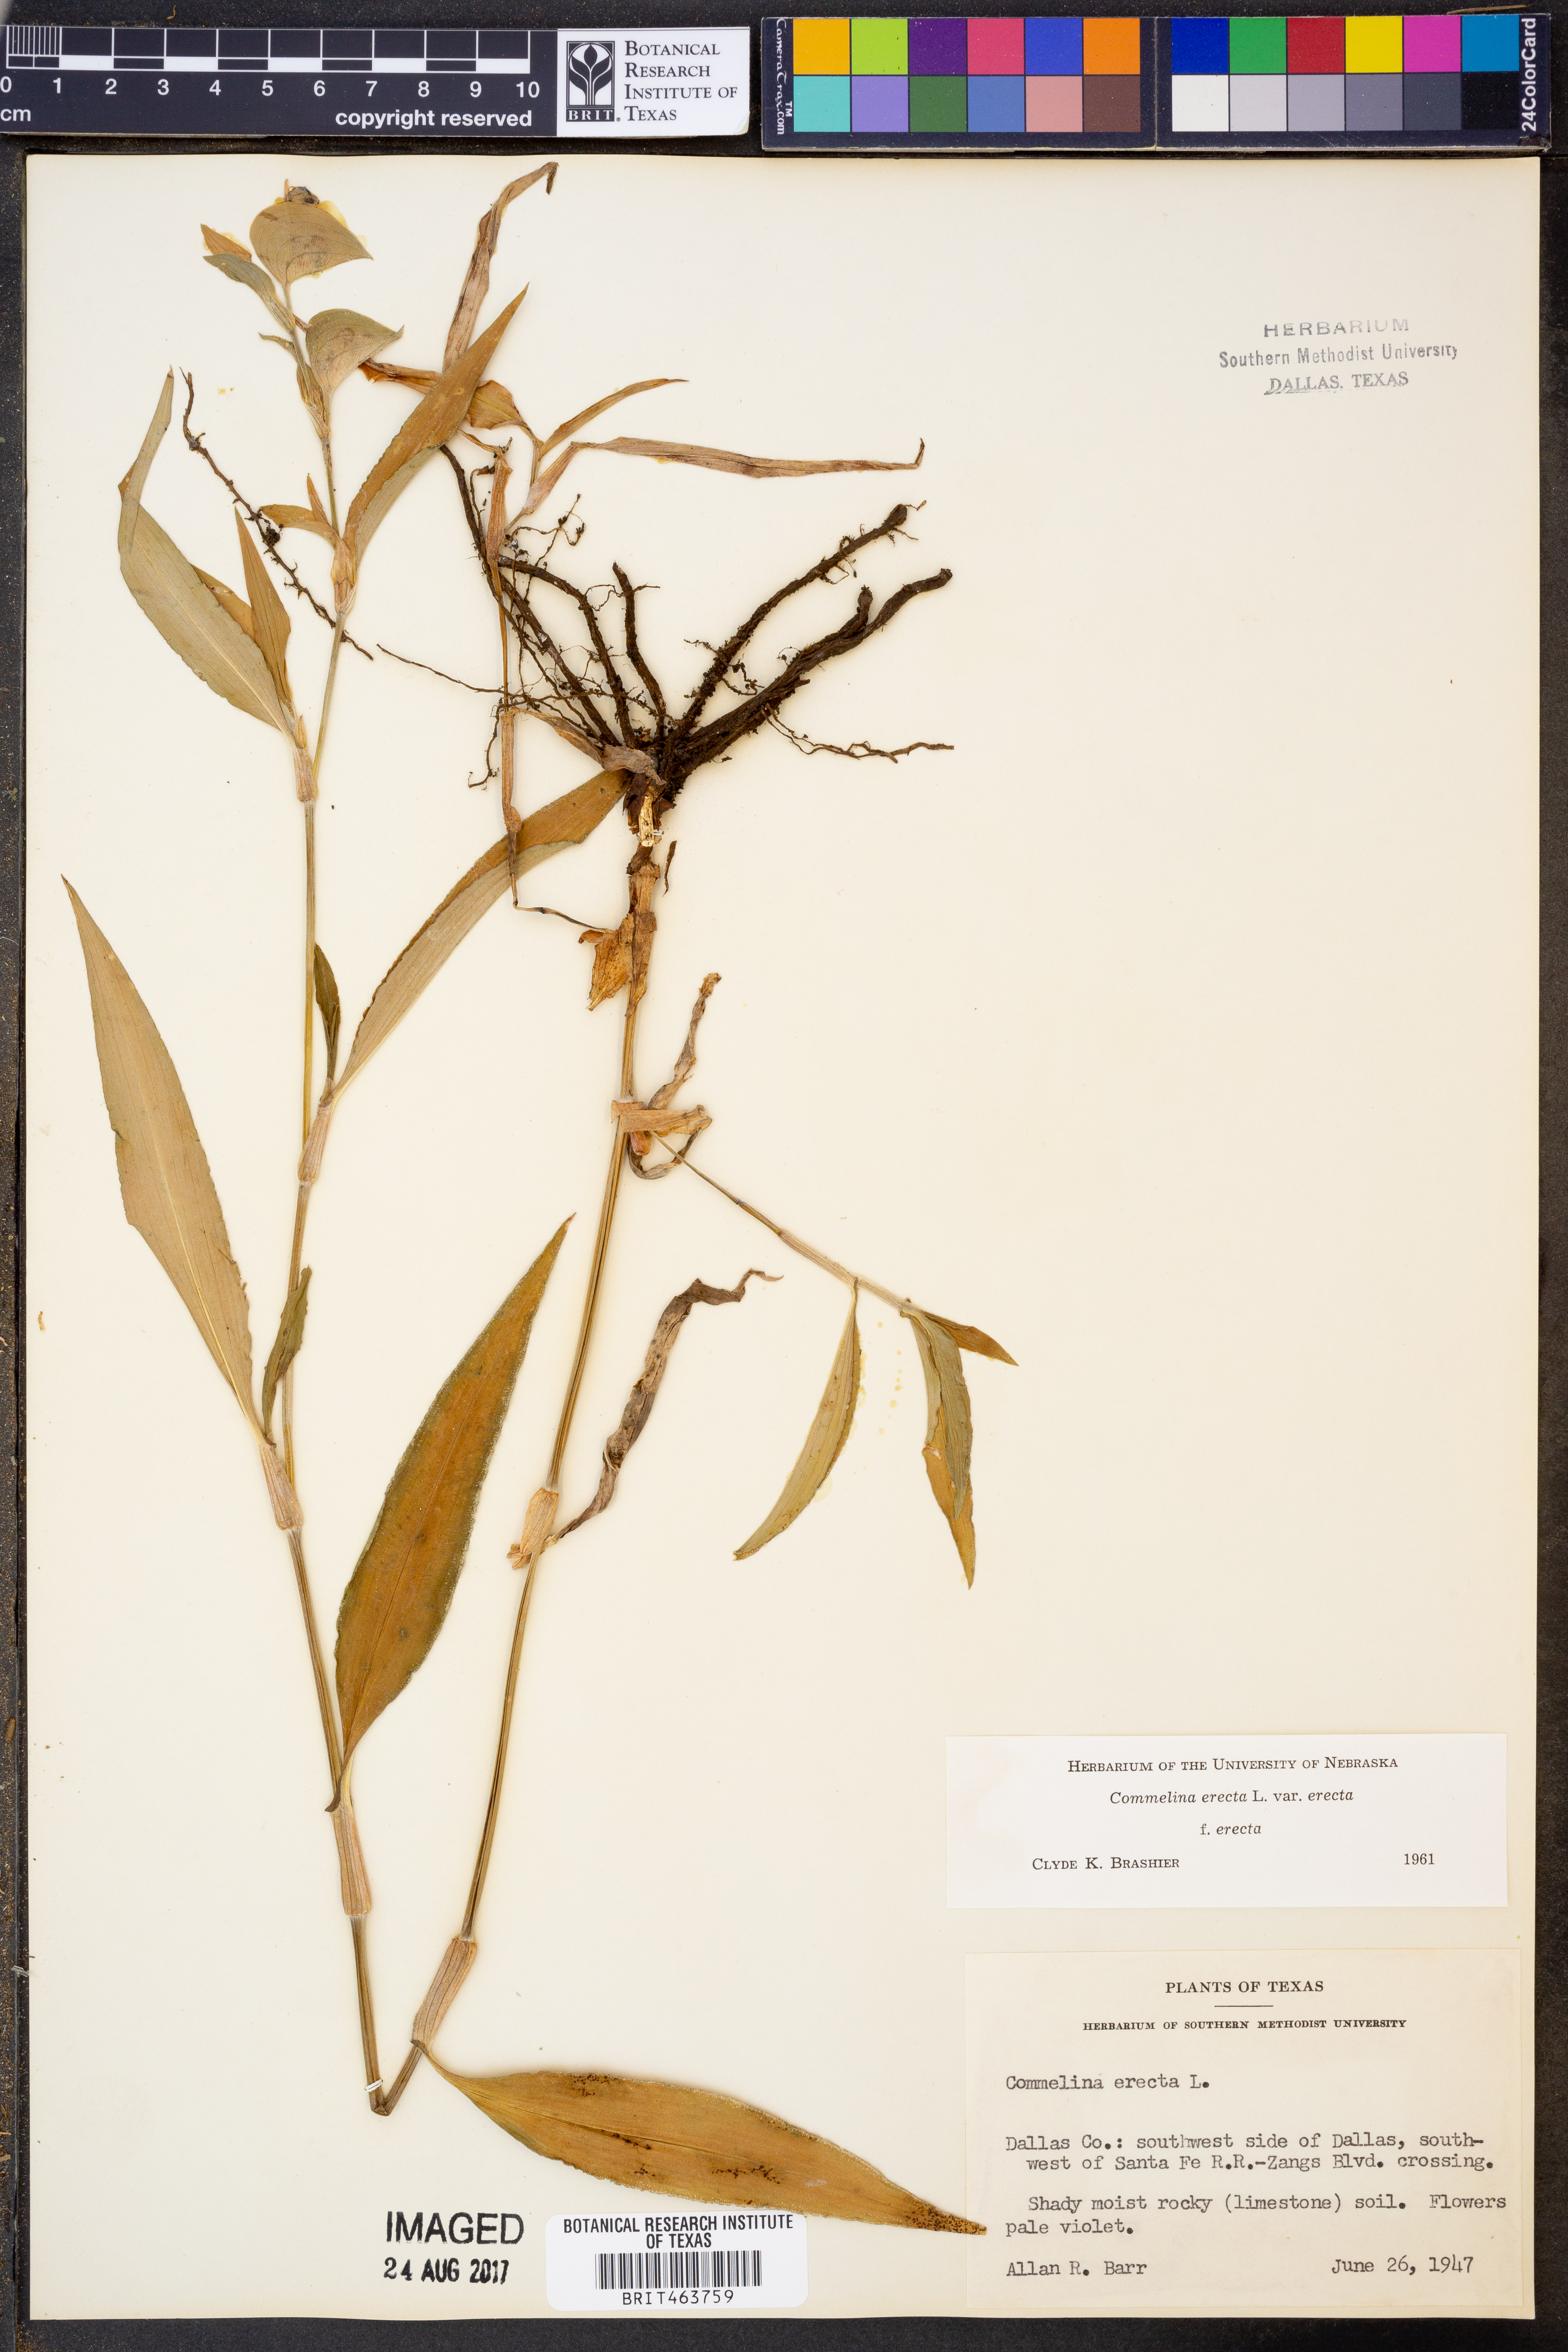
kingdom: Plantae
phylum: Tracheophyta
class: Liliopsida
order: Commelinales
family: Commelinaceae
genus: Commelina
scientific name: Commelina erecta
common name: Blousel blommetjie
